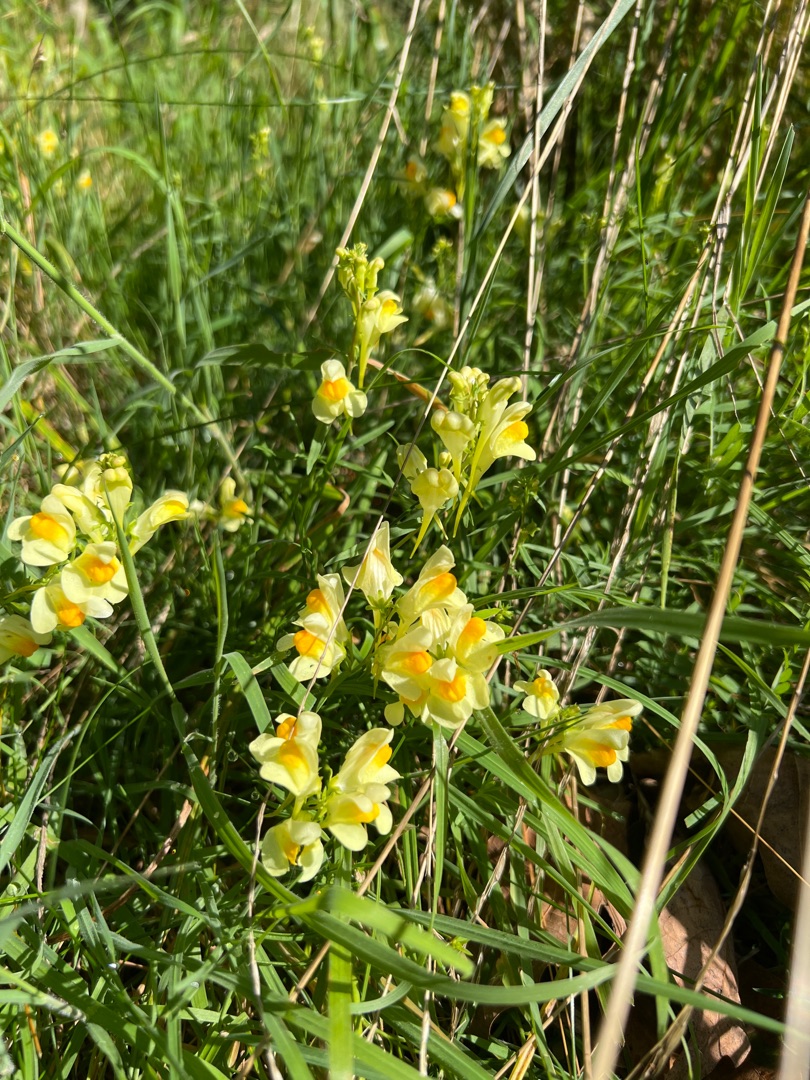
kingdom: Plantae
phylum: Tracheophyta
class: Magnoliopsida
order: Lamiales
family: Plantaginaceae
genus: Linaria
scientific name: Linaria vulgaris
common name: Almindelig torskemund
